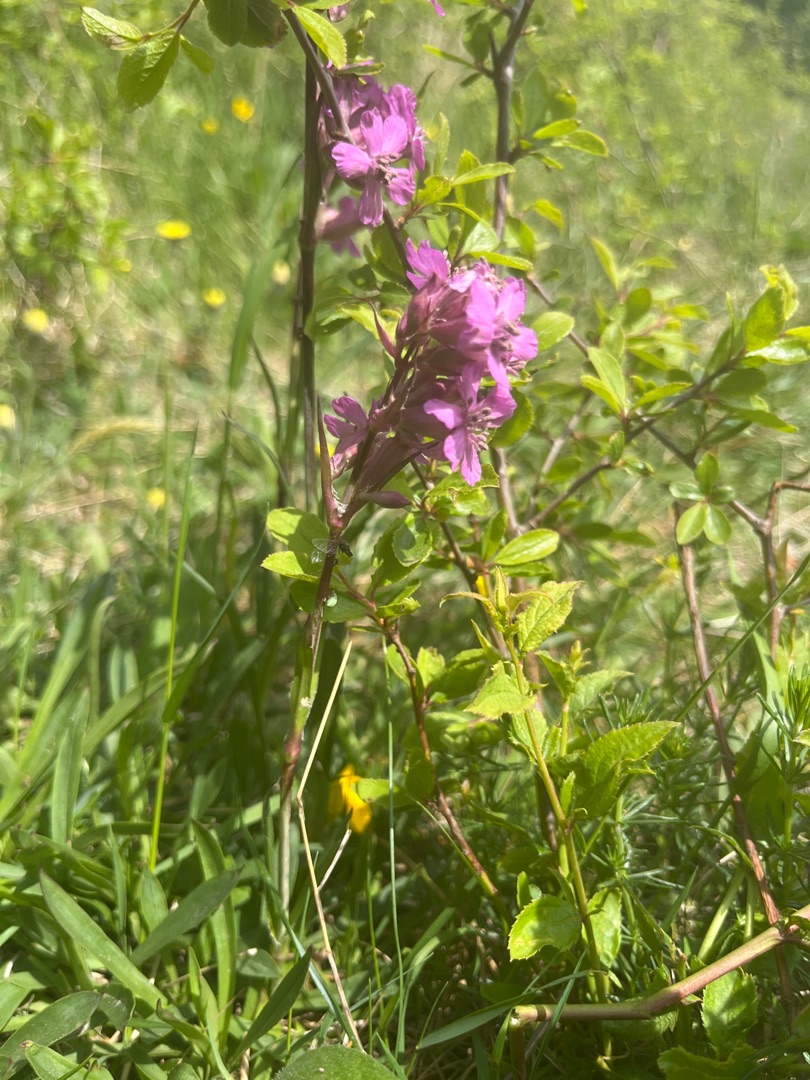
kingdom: Plantae
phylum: Tracheophyta
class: Magnoliopsida
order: Caryophyllales
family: Caryophyllaceae
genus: Viscaria
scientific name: Viscaria vulgaris
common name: Tjærenellike
